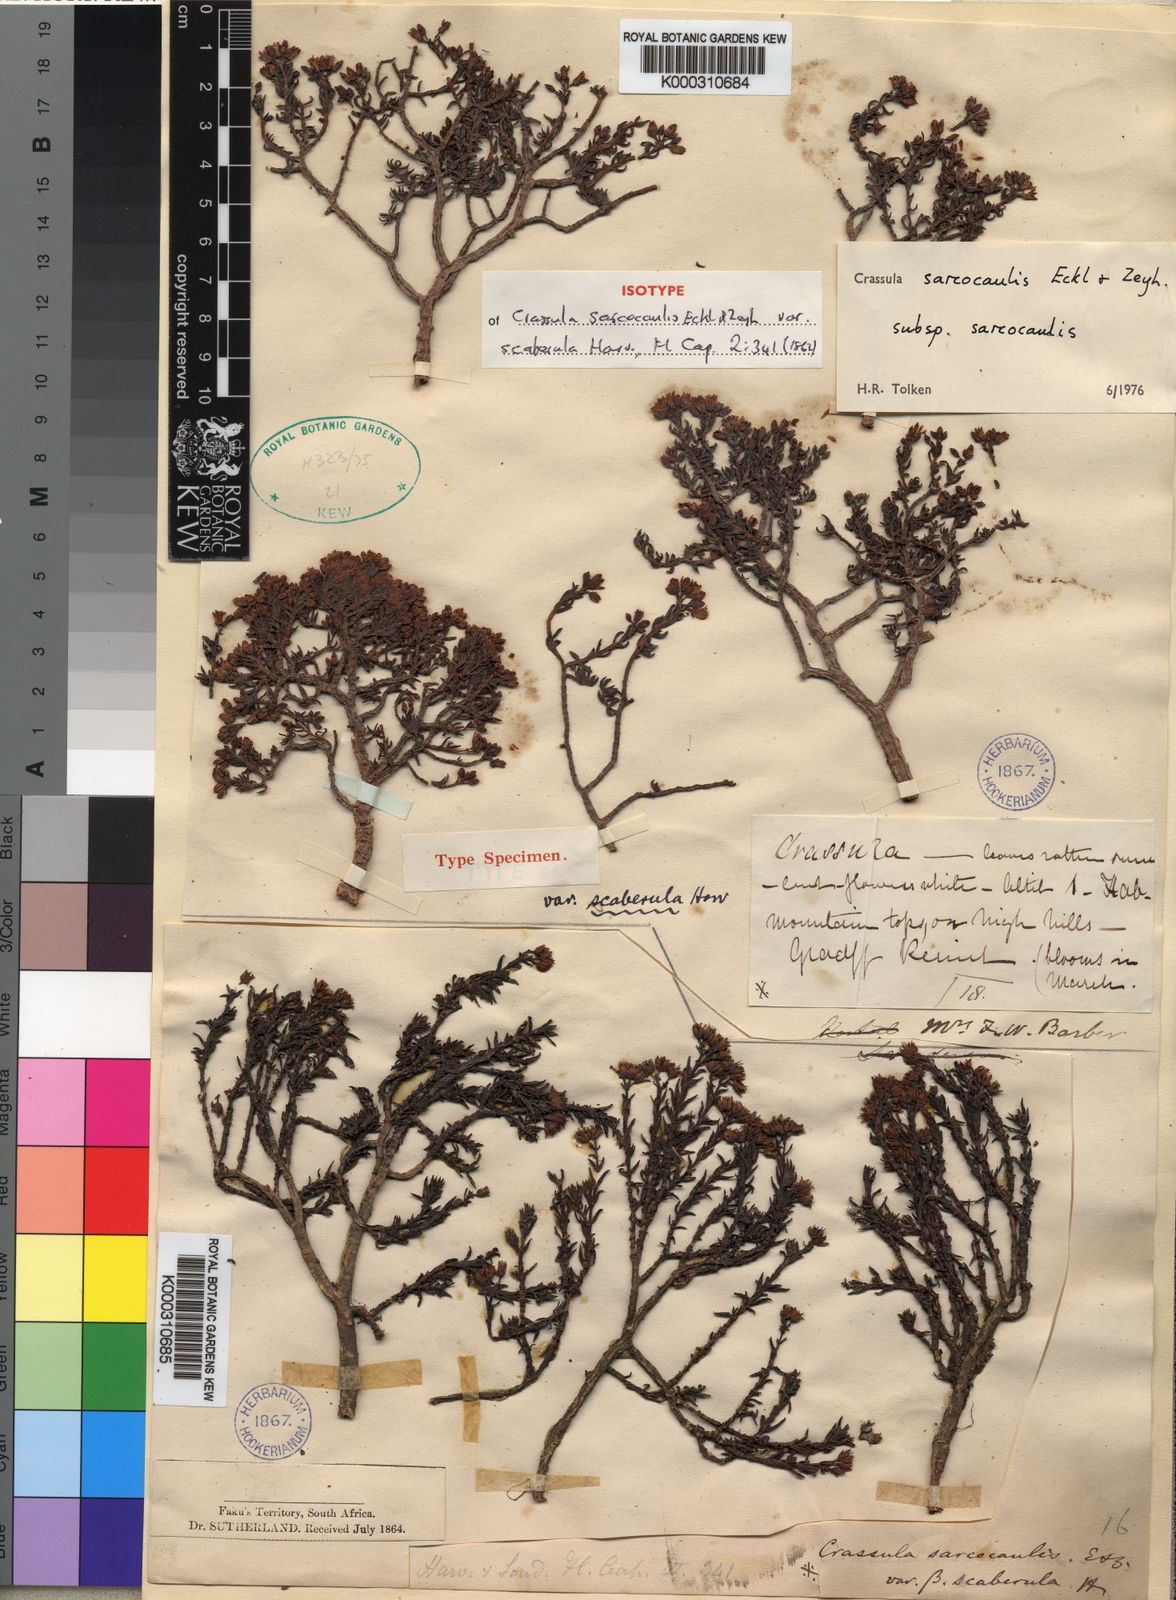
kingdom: Plantae
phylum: Tracheophyta
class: Magnoliopsida
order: Saxifragales
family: Crassulaceae
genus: Crassula
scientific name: Crassula sarcocaulis
